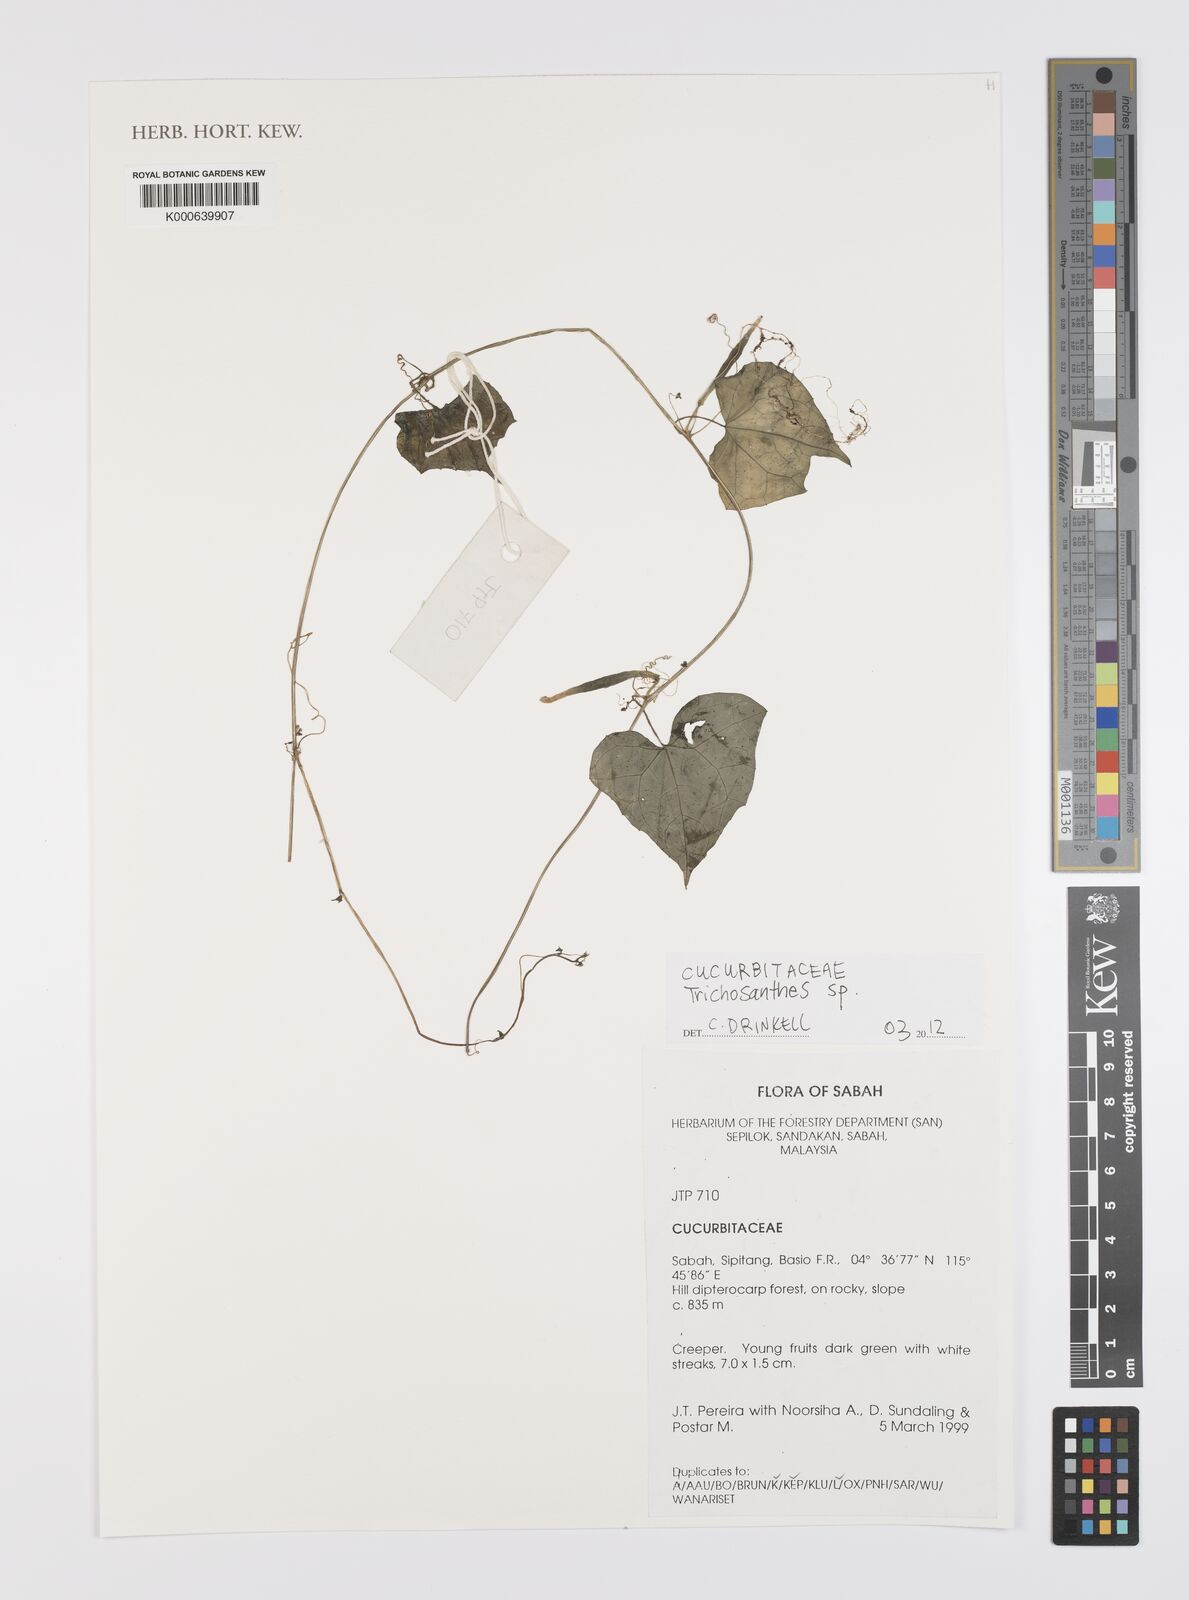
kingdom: Plantae
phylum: Tracheophyta
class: Magnoliopsida
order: Cucurbitales
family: Cucurbitaceae
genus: Trichosanthes
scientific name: Trichosanthes
